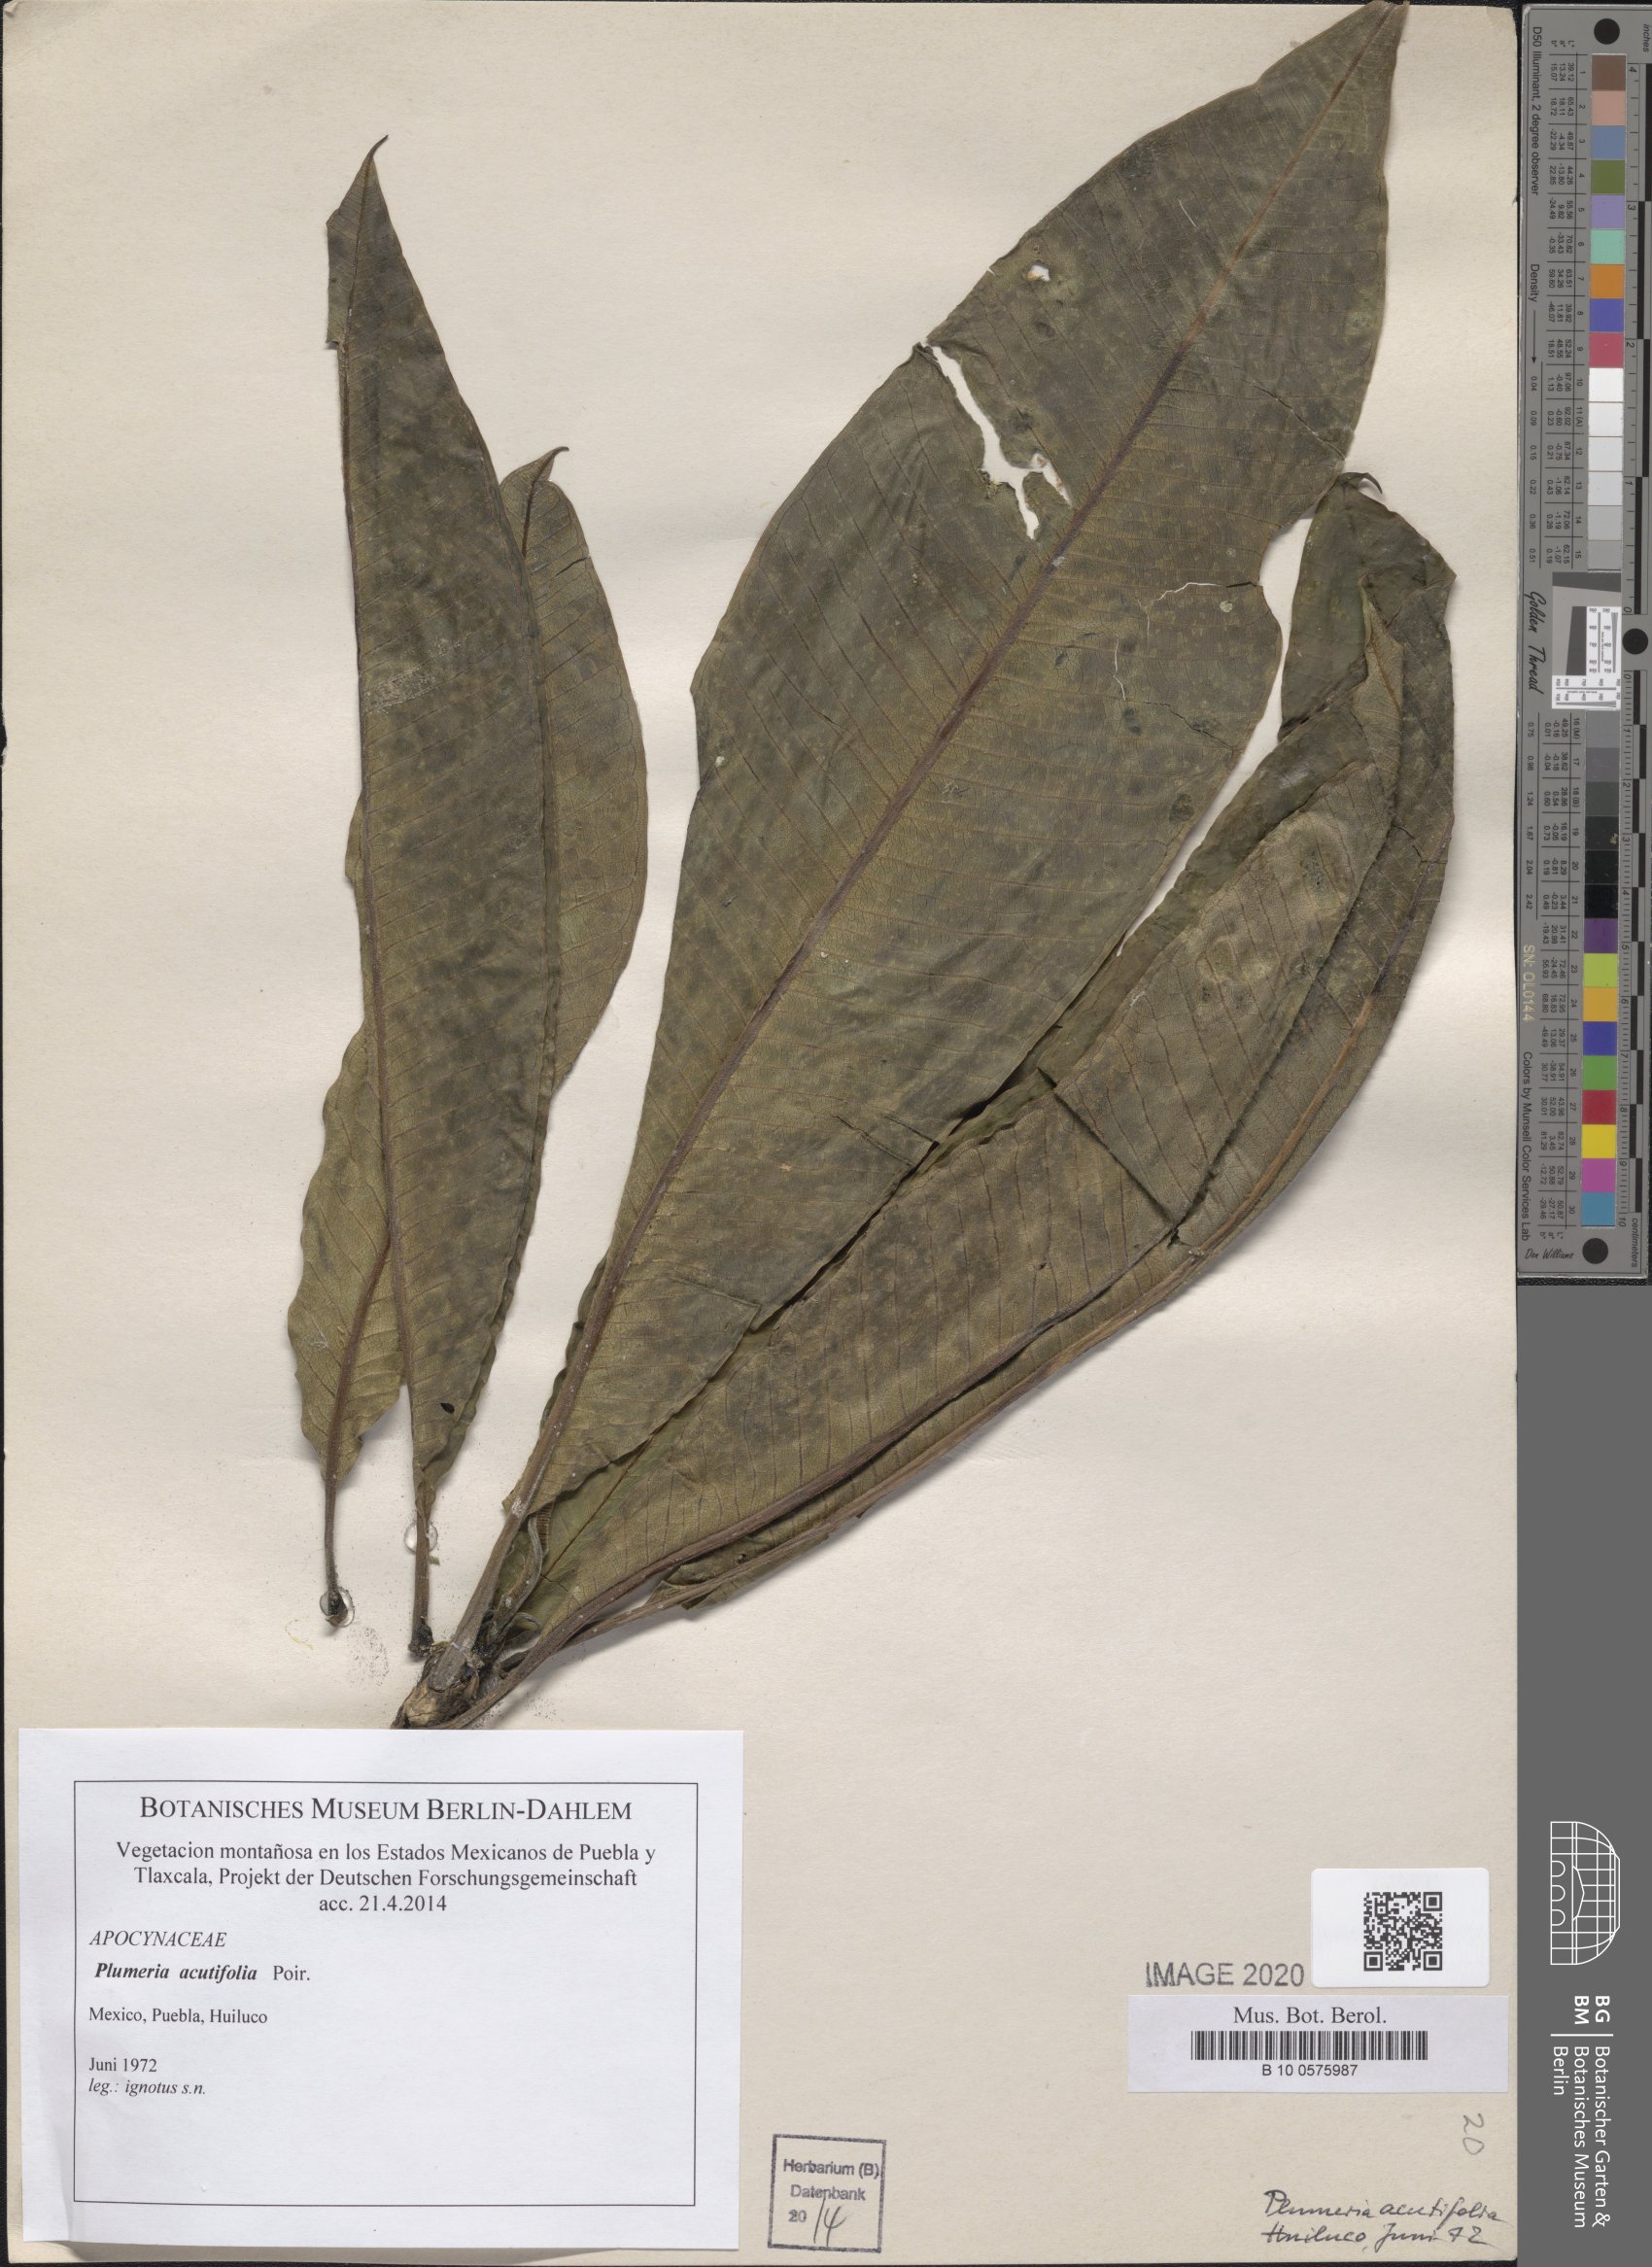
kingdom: Plantae
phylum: Tracheophyta
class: Magnoliopsida
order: Gentianales
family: Apocynaceae
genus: Plumeria
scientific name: Plumeria rubra
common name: Pagoda-tree
